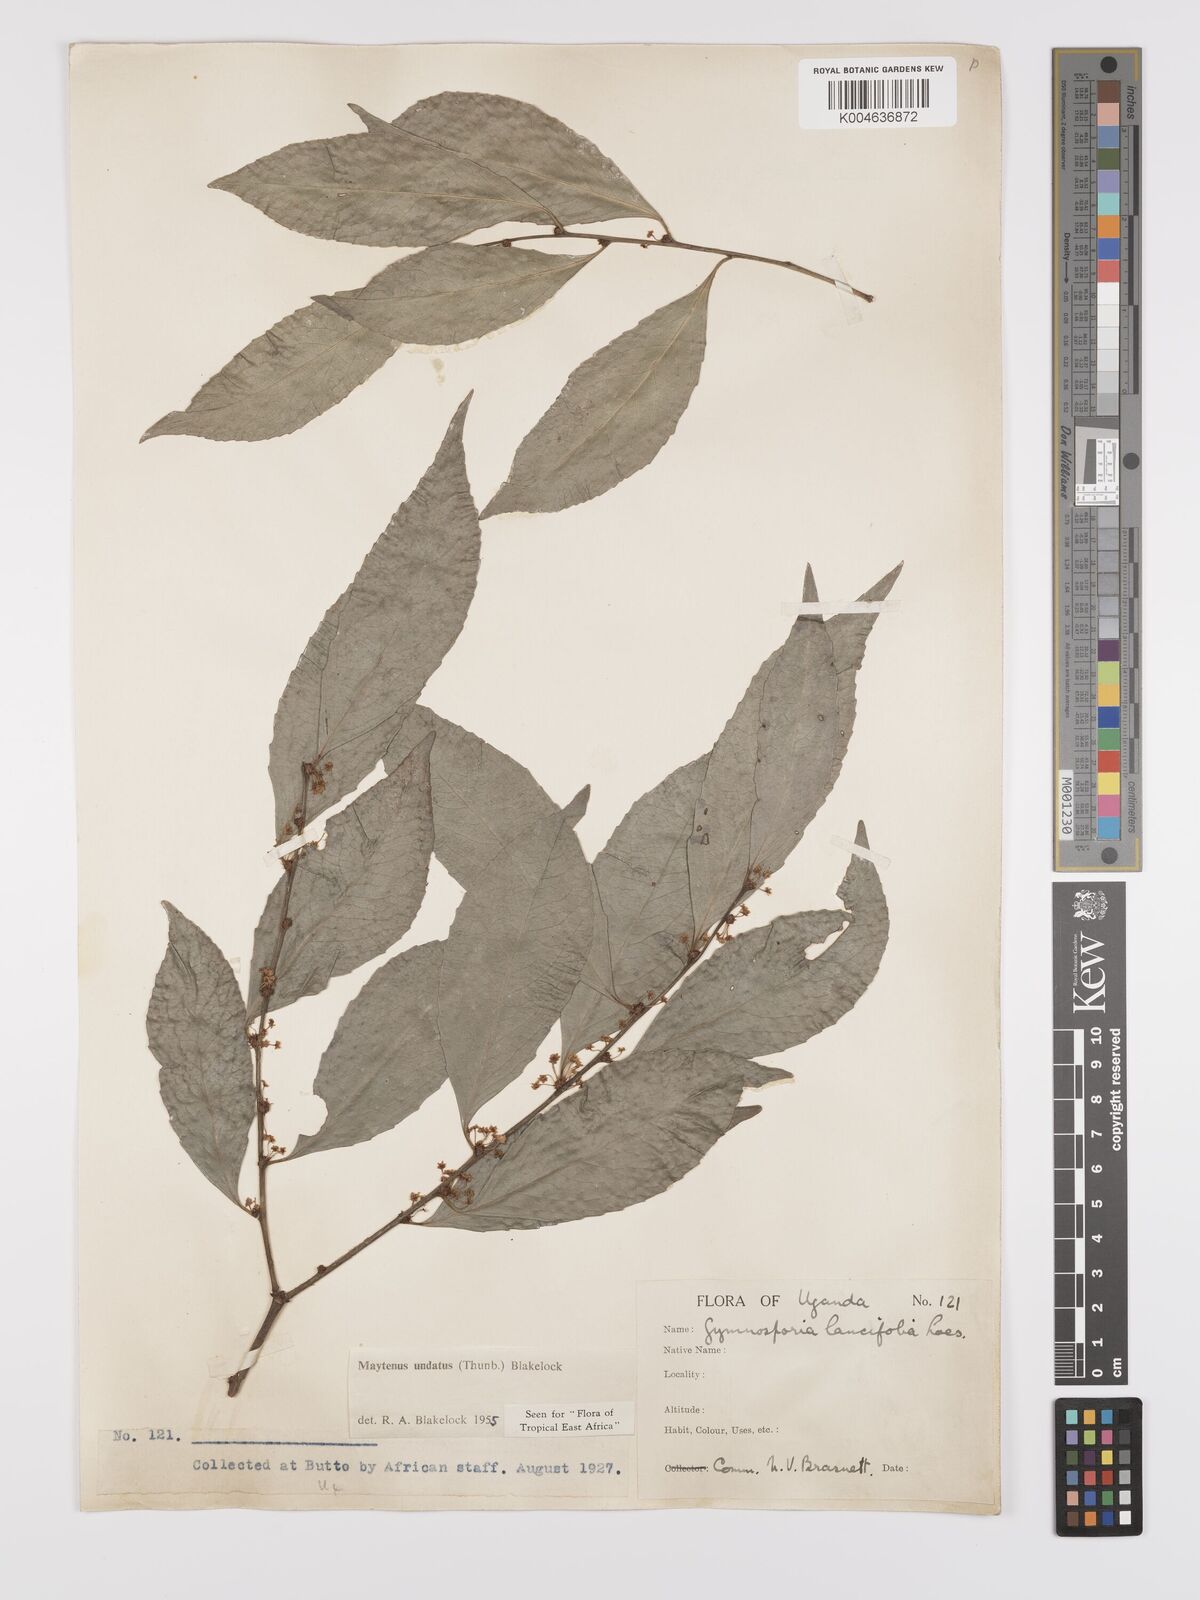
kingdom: Plantae
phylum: Tracheophyta
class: Magnoliopsida
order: Celastrales
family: Celastraceae
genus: Gymnosporia
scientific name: Gymnosporia undata
